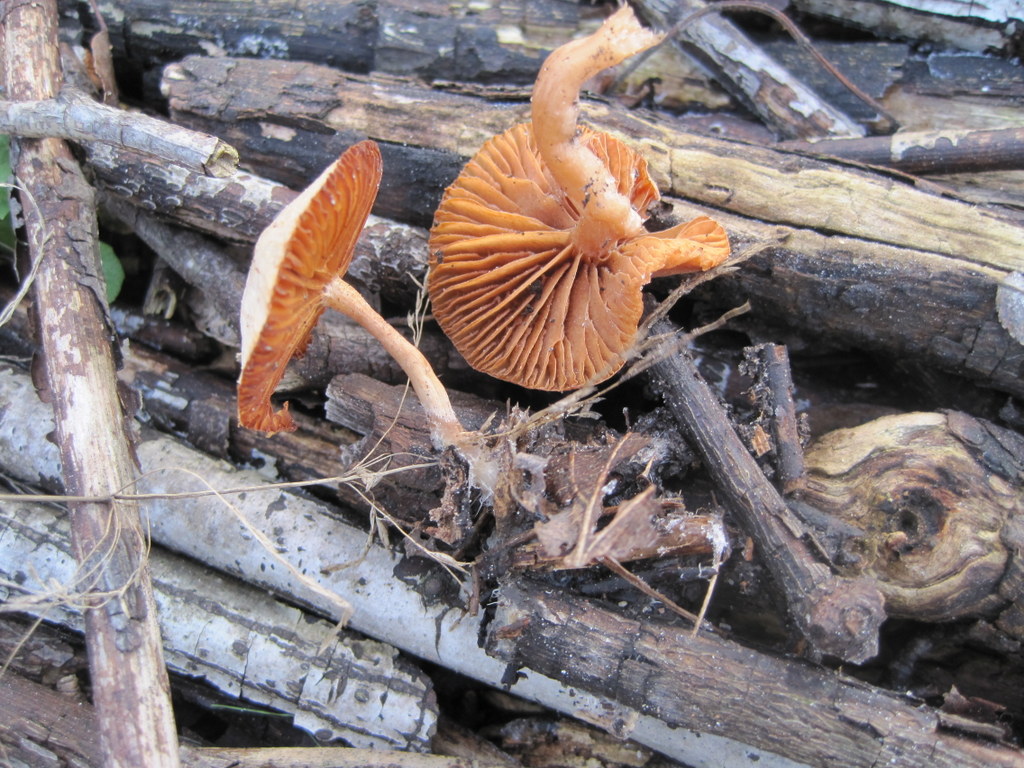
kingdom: Fungi
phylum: Basidiomycota
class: Agaricomycetes
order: Agaricales
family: Tubariaceae
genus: Tubaria
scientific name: Tubaria furfuracea
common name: kliddet fnughat
